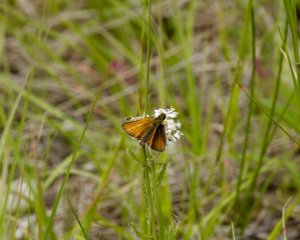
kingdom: Animalia
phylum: Arthropoda
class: Insecta
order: Lepidoptera
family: Hesperiidae
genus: Thymelicus
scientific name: Thymelicus lineola
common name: European Skipper
